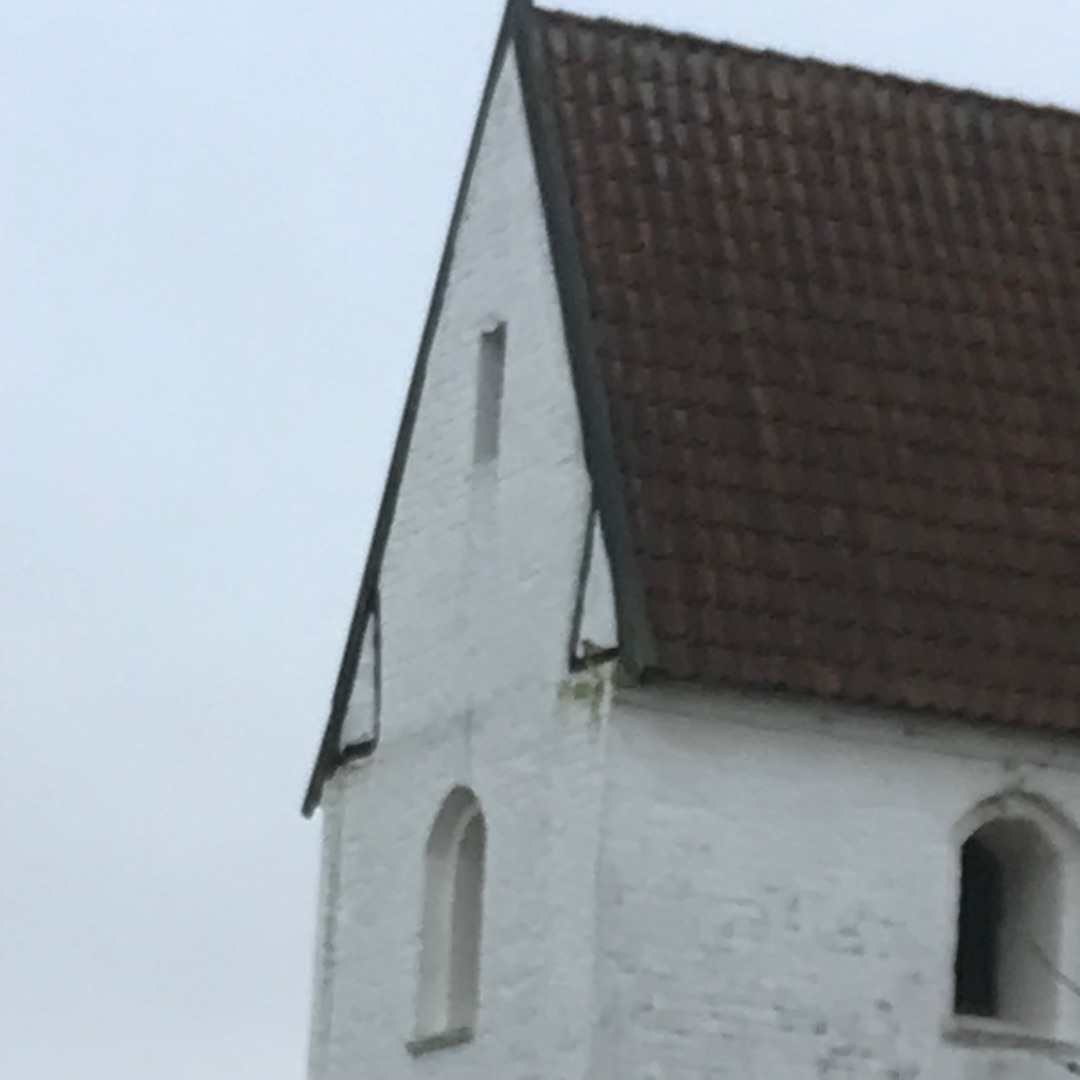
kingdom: Animalia
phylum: Chordata
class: Aves
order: Falconiformes
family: Falconidae
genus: Falco
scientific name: Falco tinnunculus
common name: Tårnfalk
